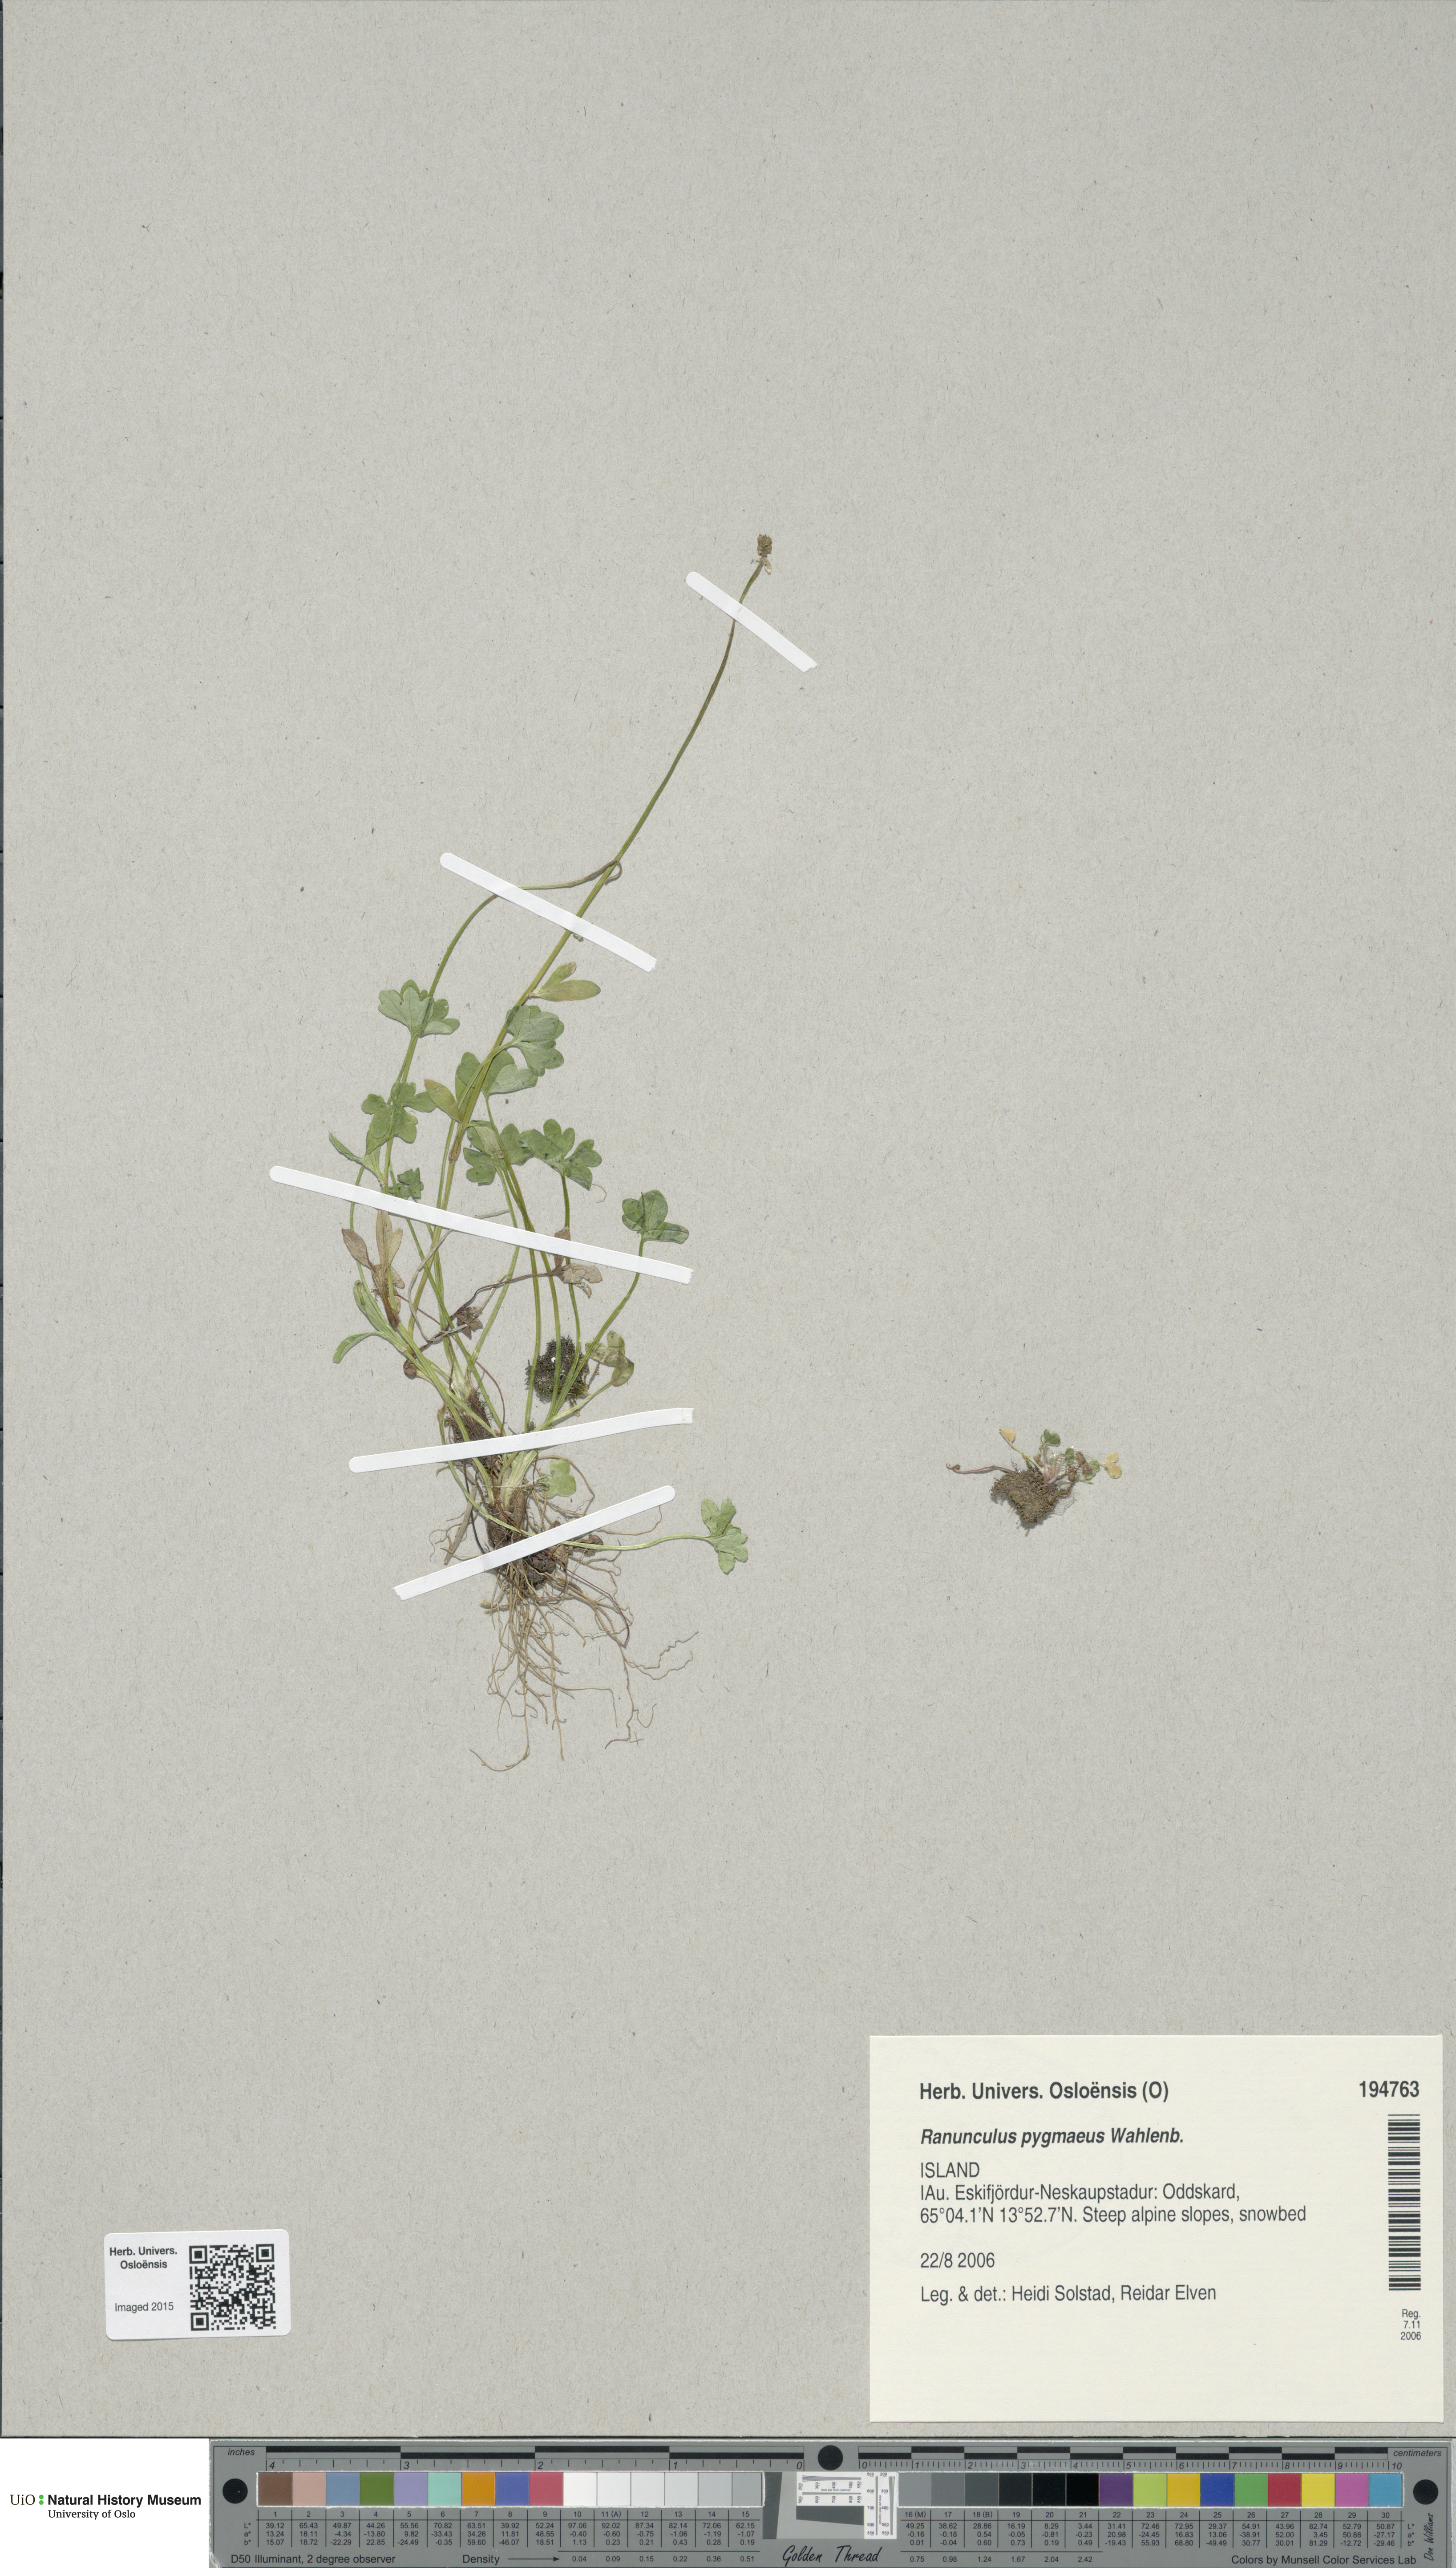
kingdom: Plantae
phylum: Tracheophyta
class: Magnoliopsida
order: Ranunculales
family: Ranunculaceae
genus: Ranunculus
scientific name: Ranunculus pygmaeus
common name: Dwarf buttercup
